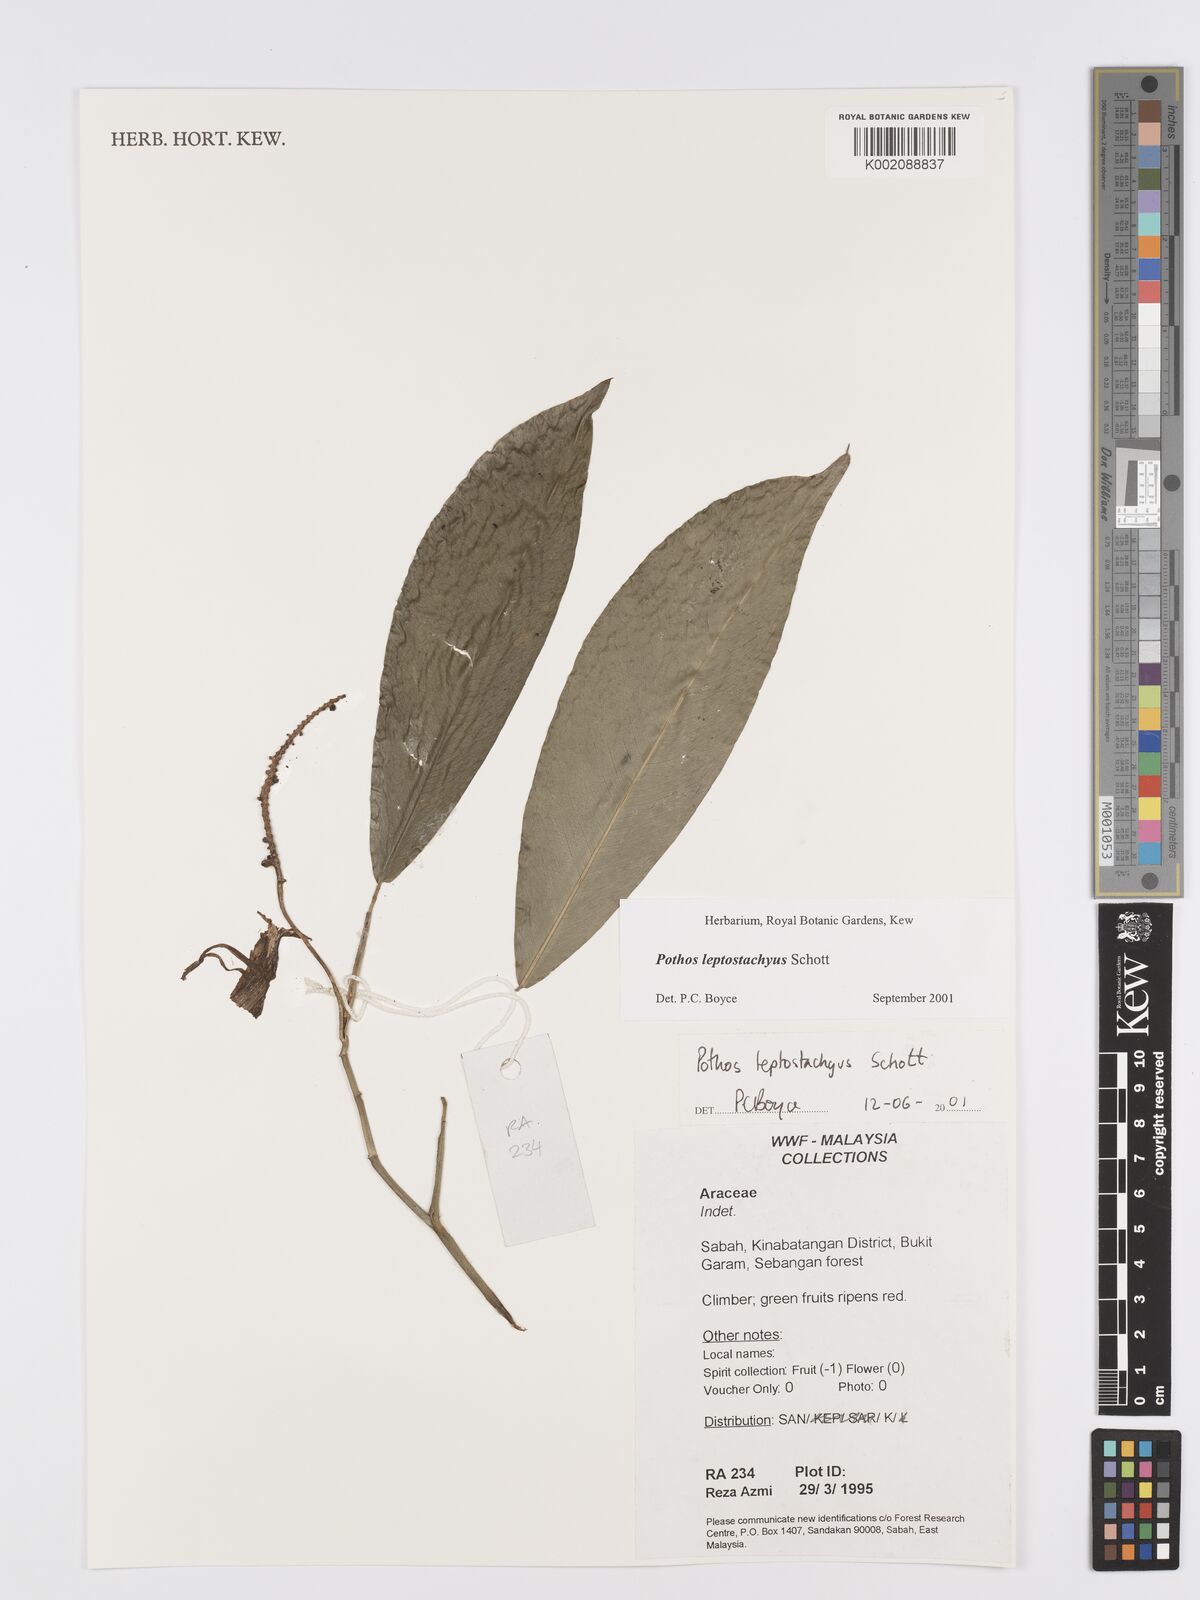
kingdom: Plantae
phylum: Tracheophyta
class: Liliopsida
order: Alismatales
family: Araceae
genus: Pothos
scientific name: Pothos leptostachyus
